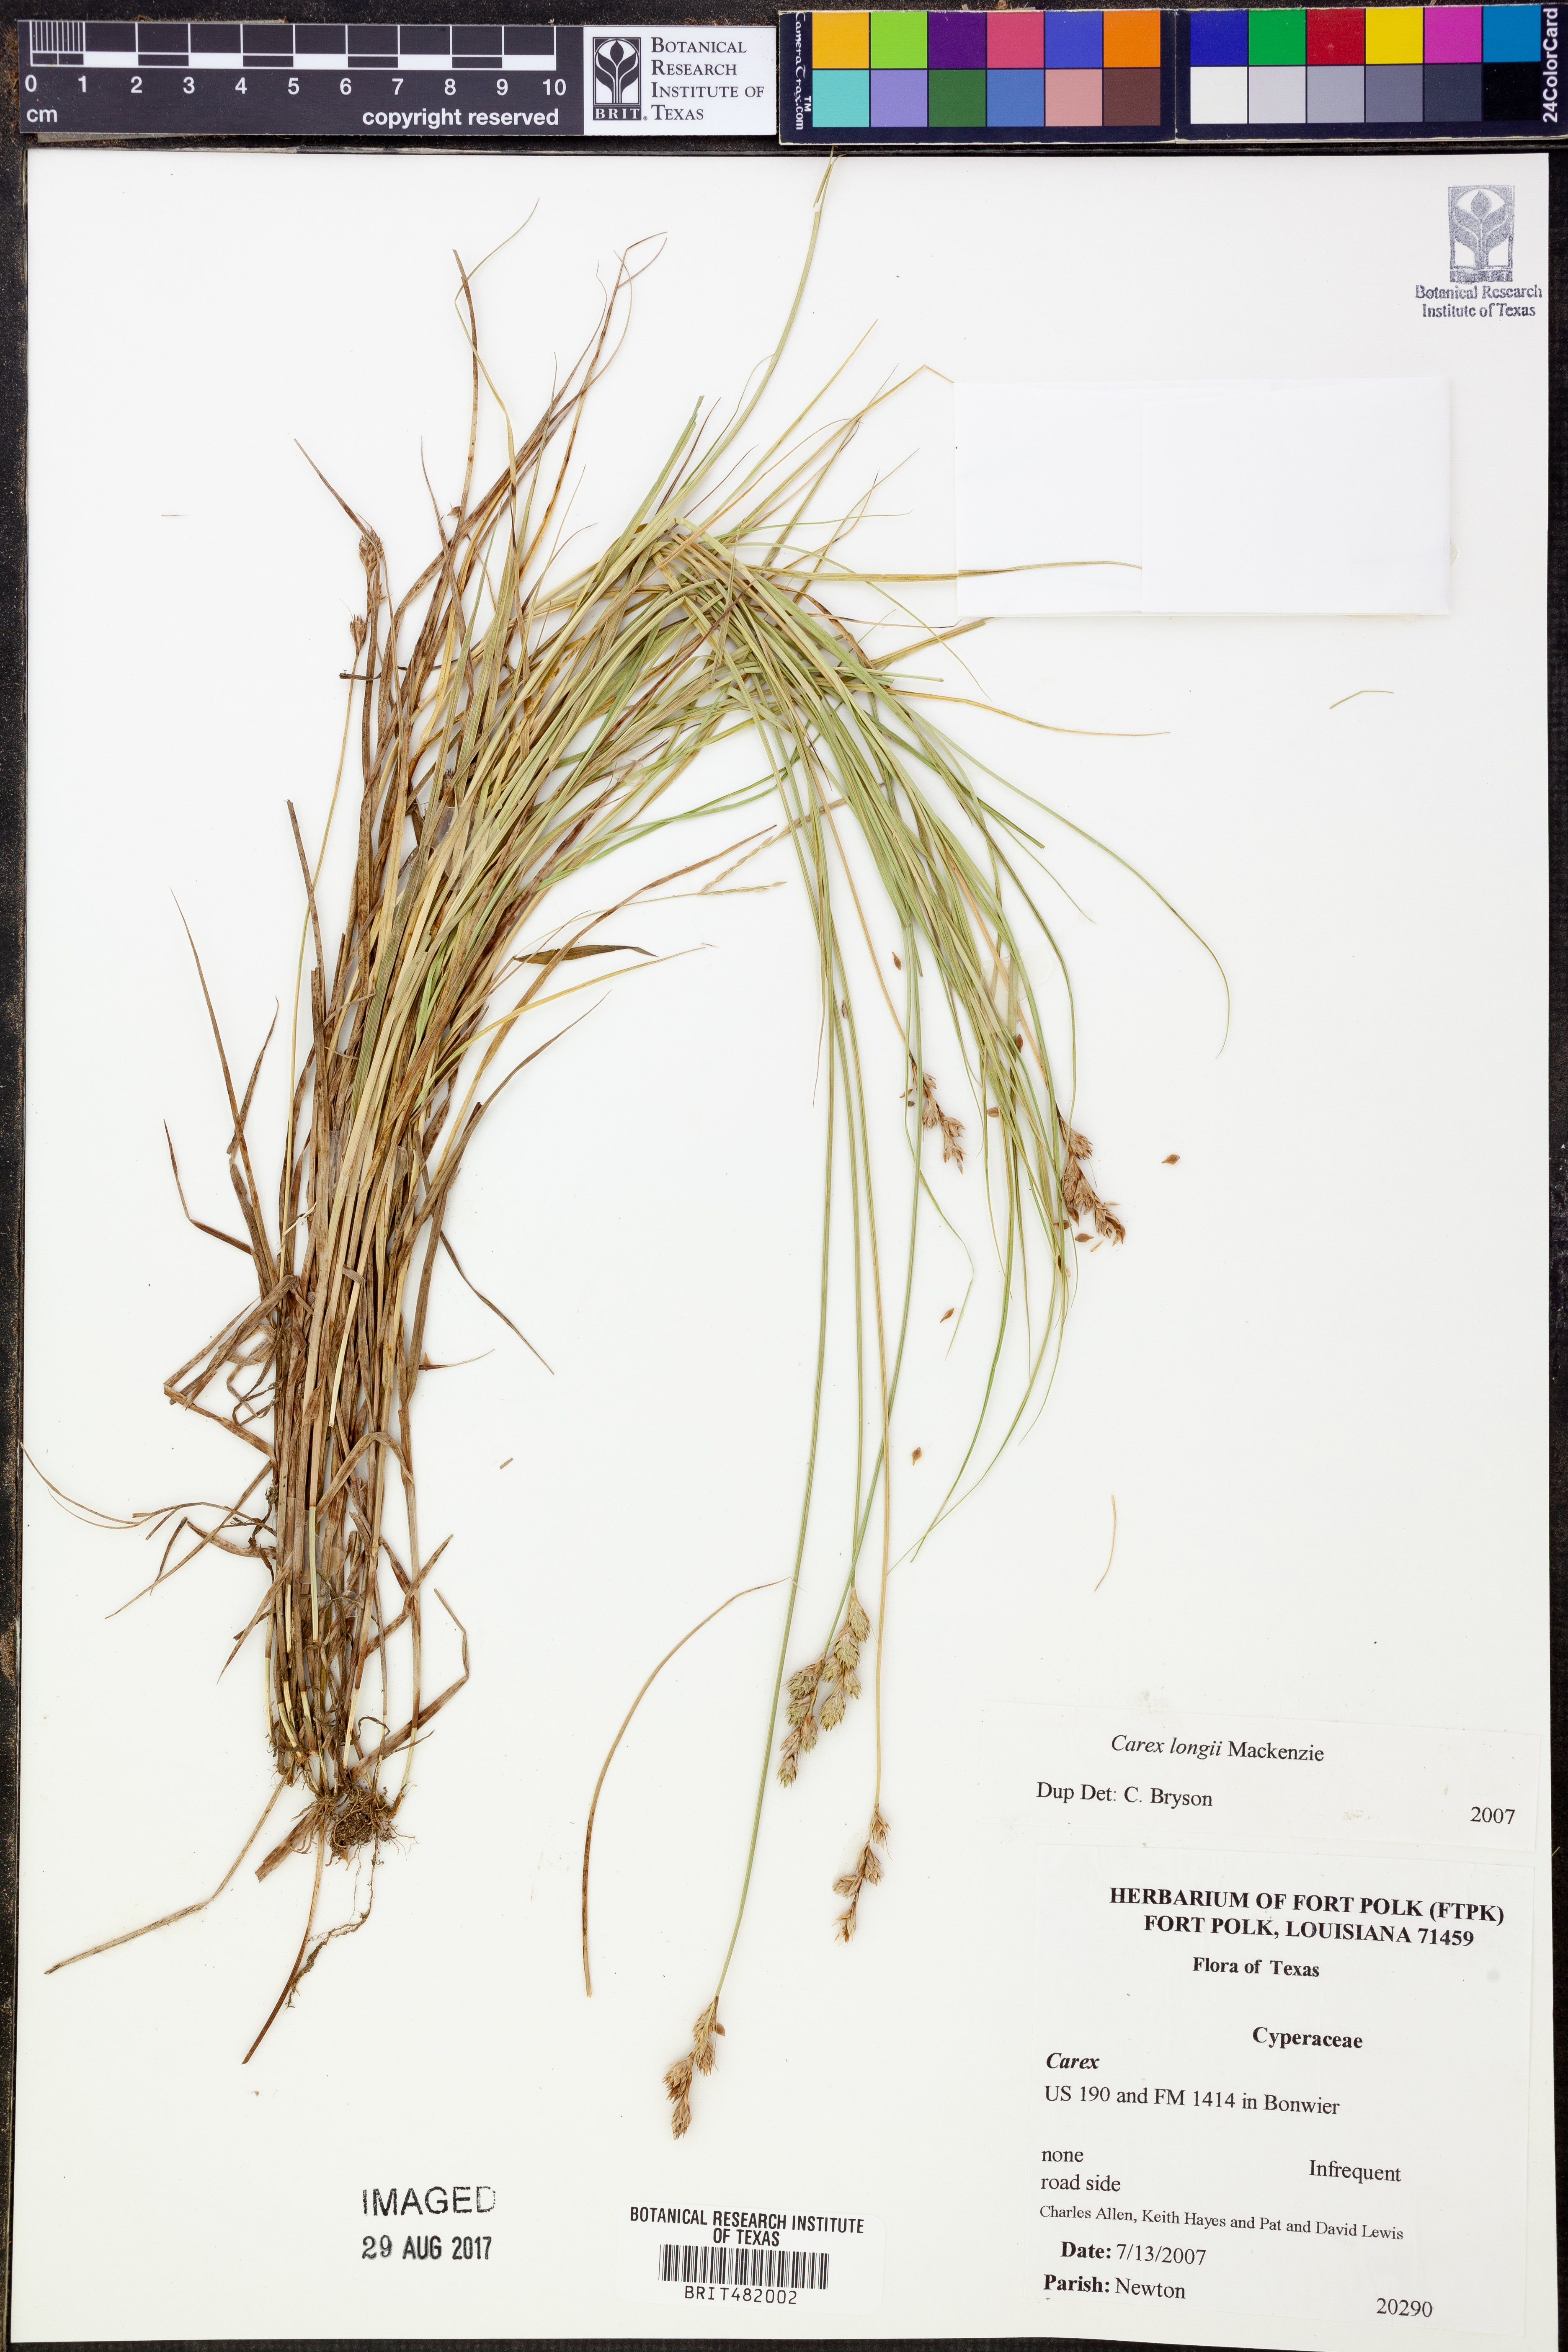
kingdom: Plantae
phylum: Tracheophyta
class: Liliopsida
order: Poales
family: Cyperaceae
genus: Carex
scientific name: Carex longii
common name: Long's sedge
